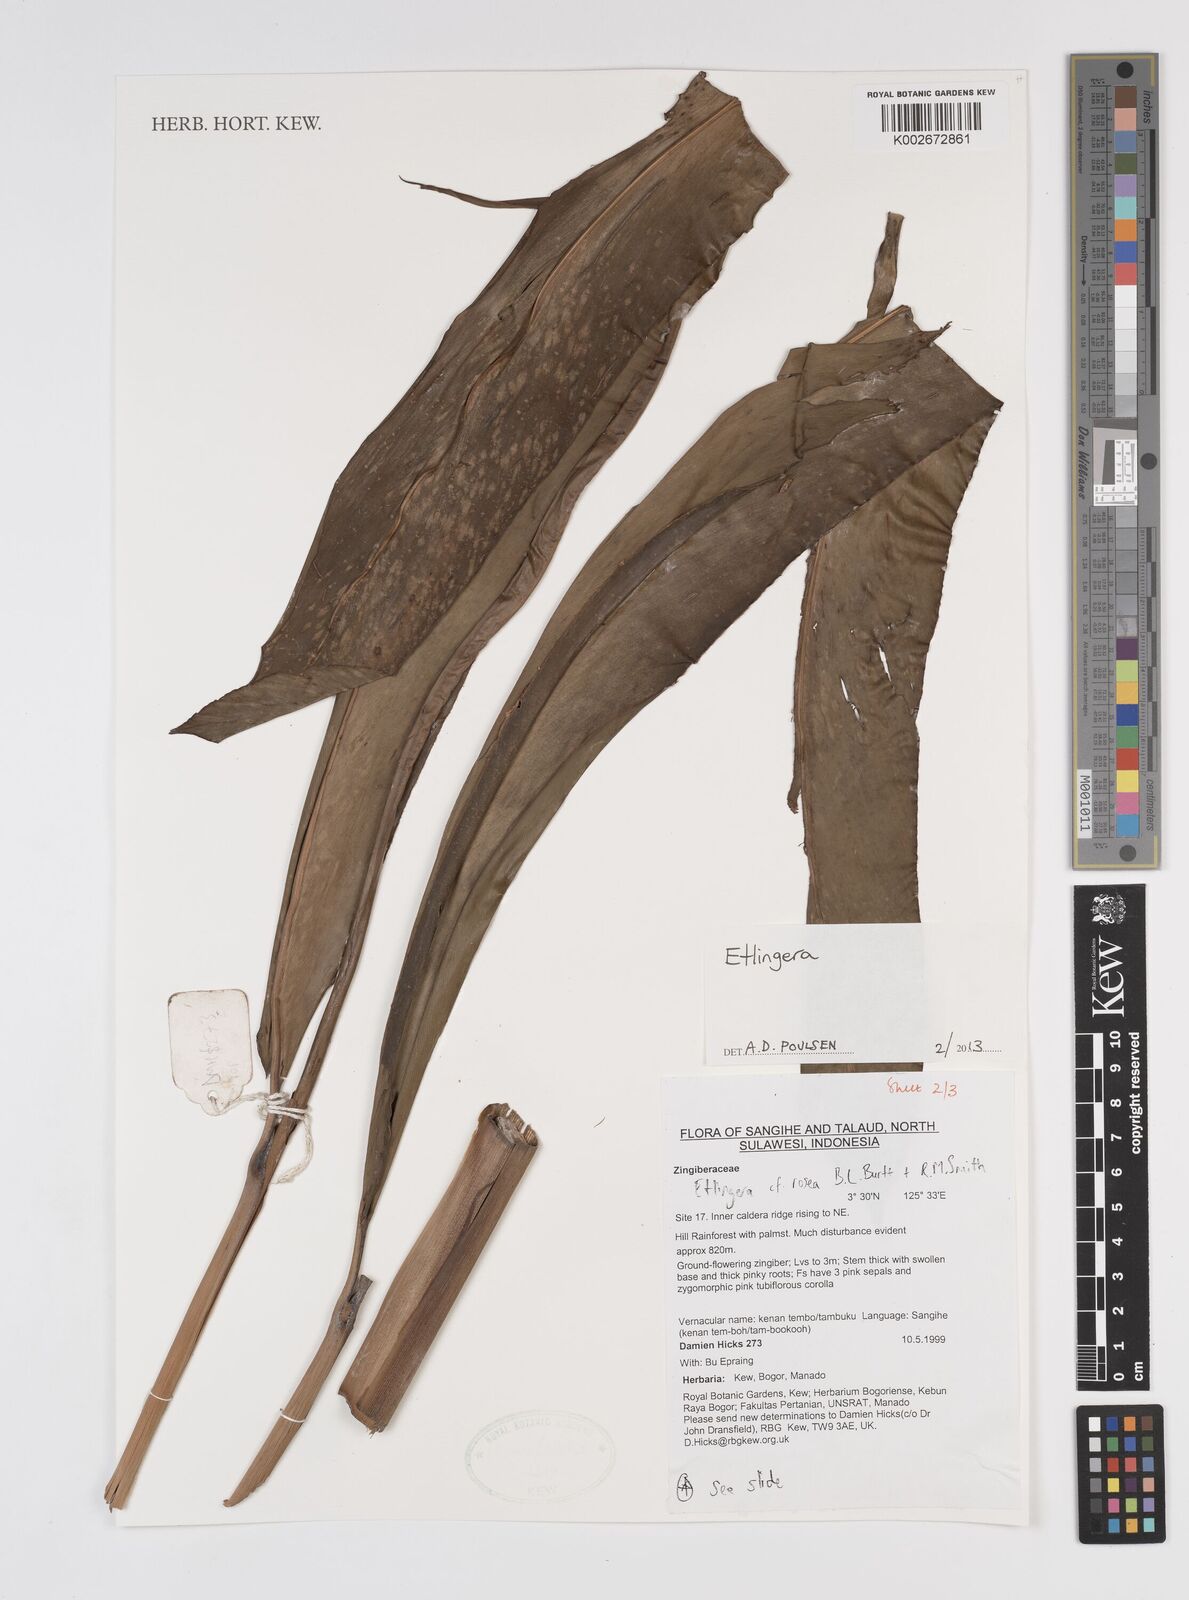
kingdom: Plantae
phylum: Tracheophyta
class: Liliopsida
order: Zingiberales
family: Zingiberaceae
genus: Etlingera
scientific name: Etlingera
